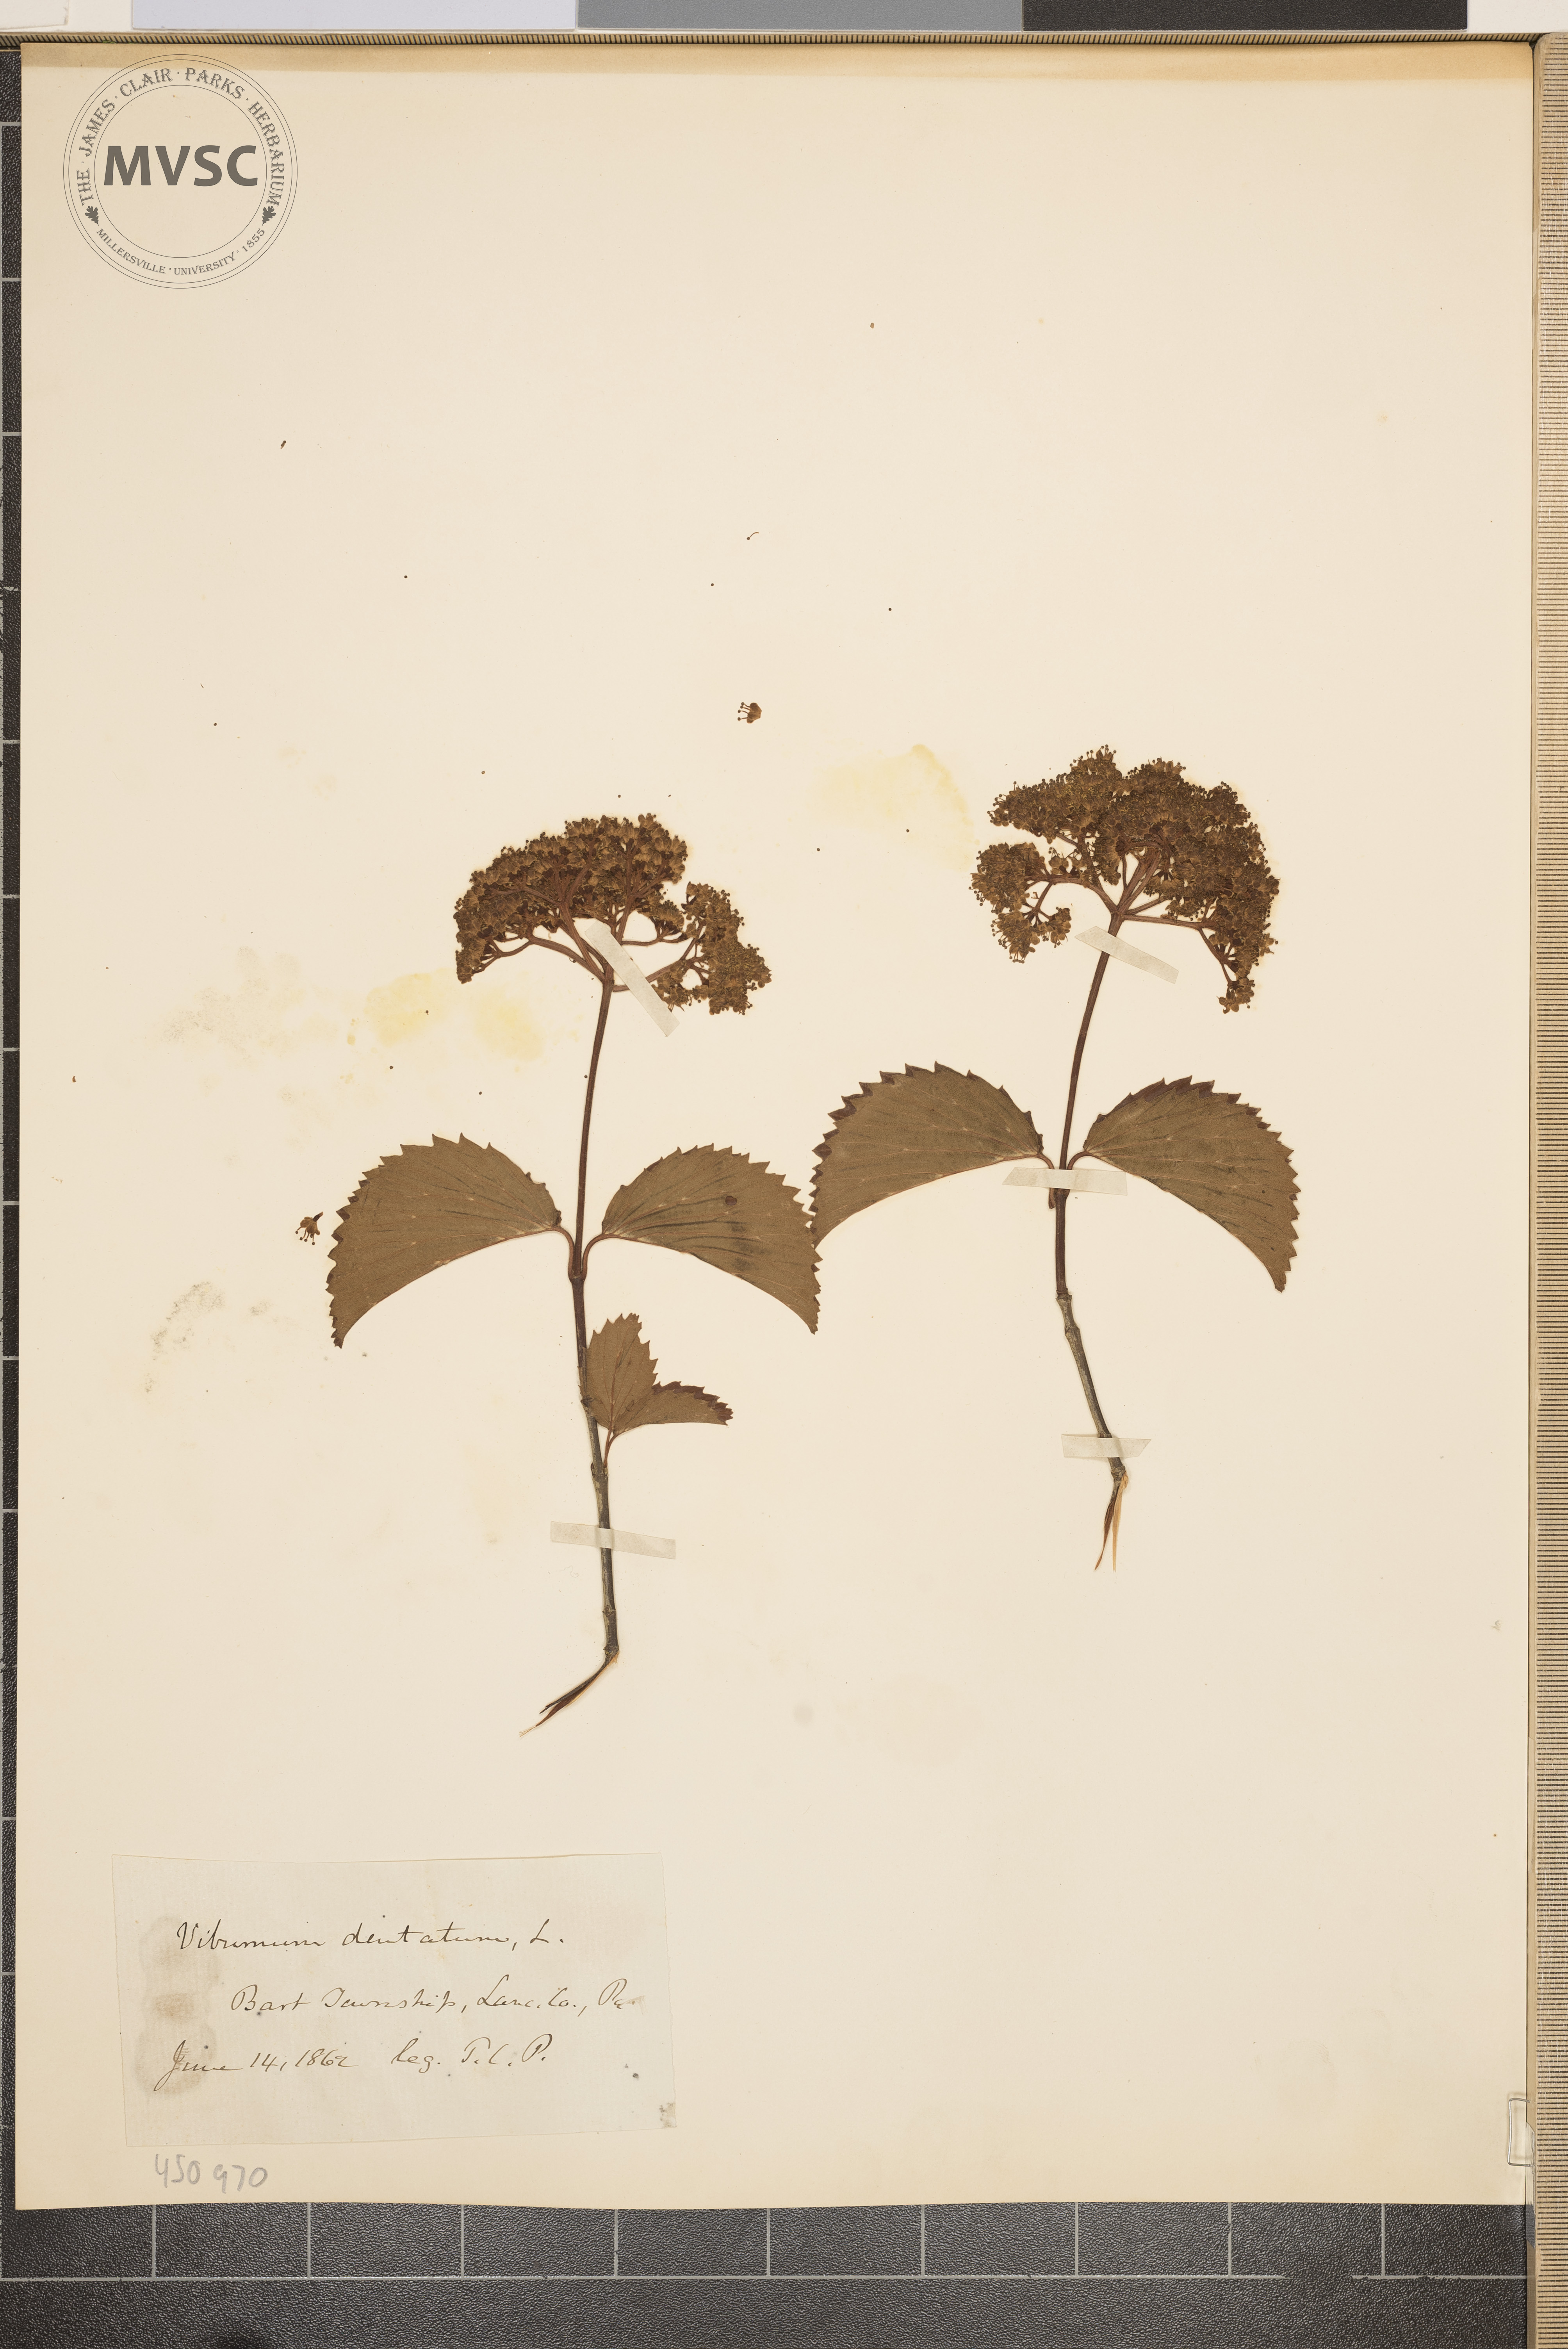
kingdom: Plantae
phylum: Tracheophyta
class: Magnoliopsida
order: Dipsacales
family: Viburnaceae
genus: Viburnum
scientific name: Viburnum dentatum
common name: Arrow-wood
